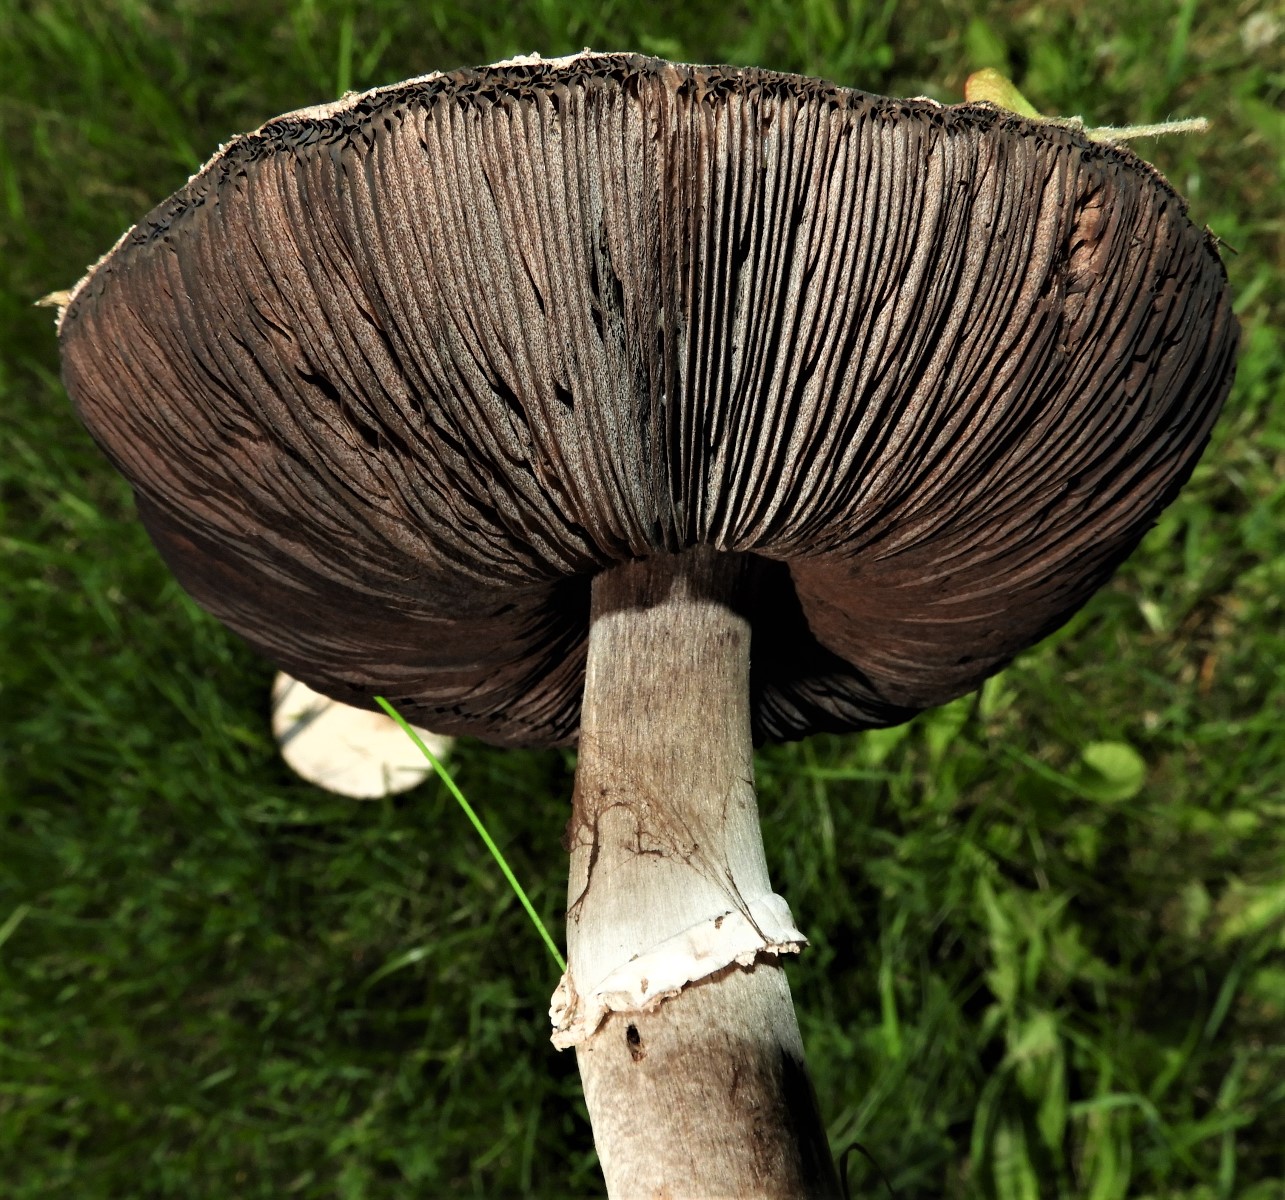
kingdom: Fungi
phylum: Basidiomycota
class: Agaricomycetes
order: Agaricales
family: Agaricaceae
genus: Agaricus
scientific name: Agaricus
